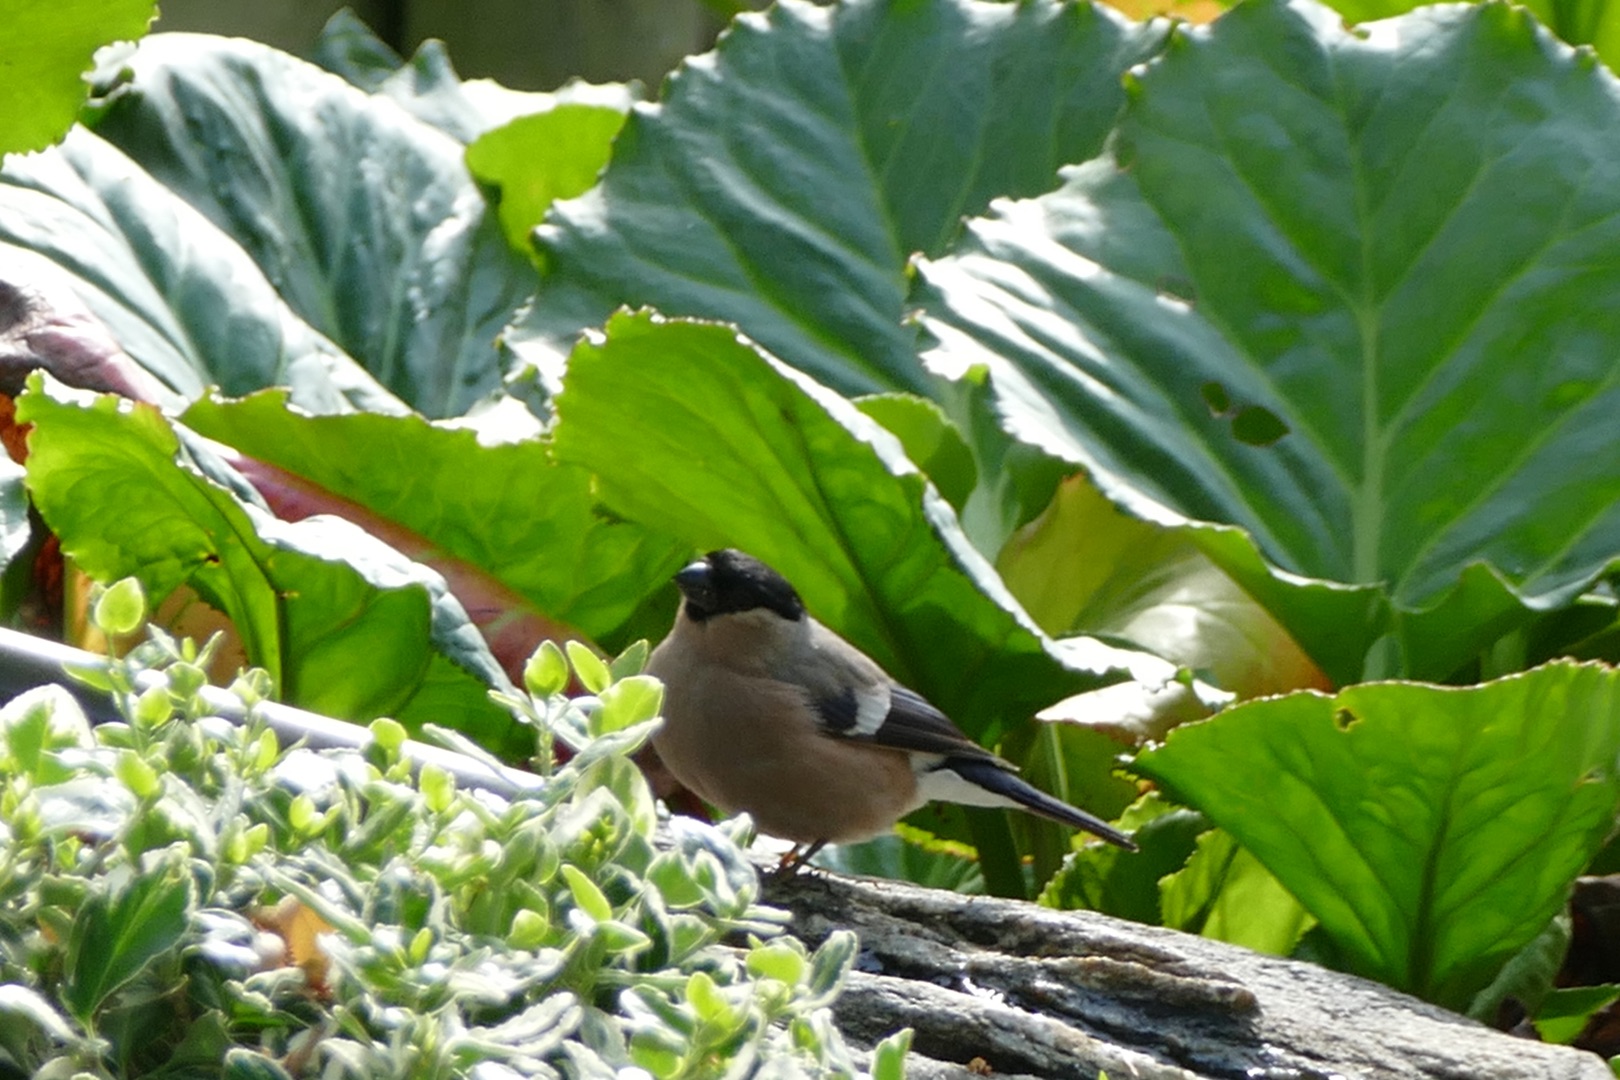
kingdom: Animalia
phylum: Chordata
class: Aves
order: Passeriformes
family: Fringillidae
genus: Pyrrhula
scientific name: Pyrrhula pyrrhula
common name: Dompap
